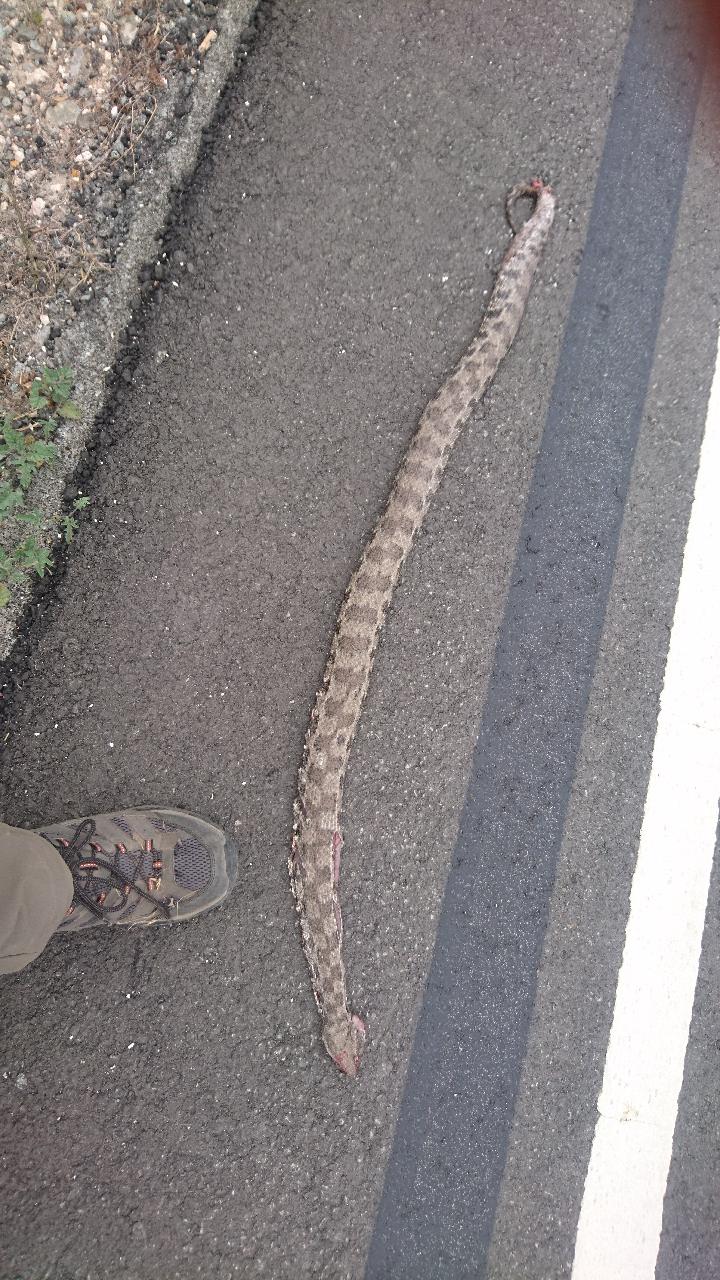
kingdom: Animalia
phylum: Chordata
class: Squamata
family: Viperidae
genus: Macrovipera
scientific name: Macrovipera lebetinus
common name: Levantine viper
